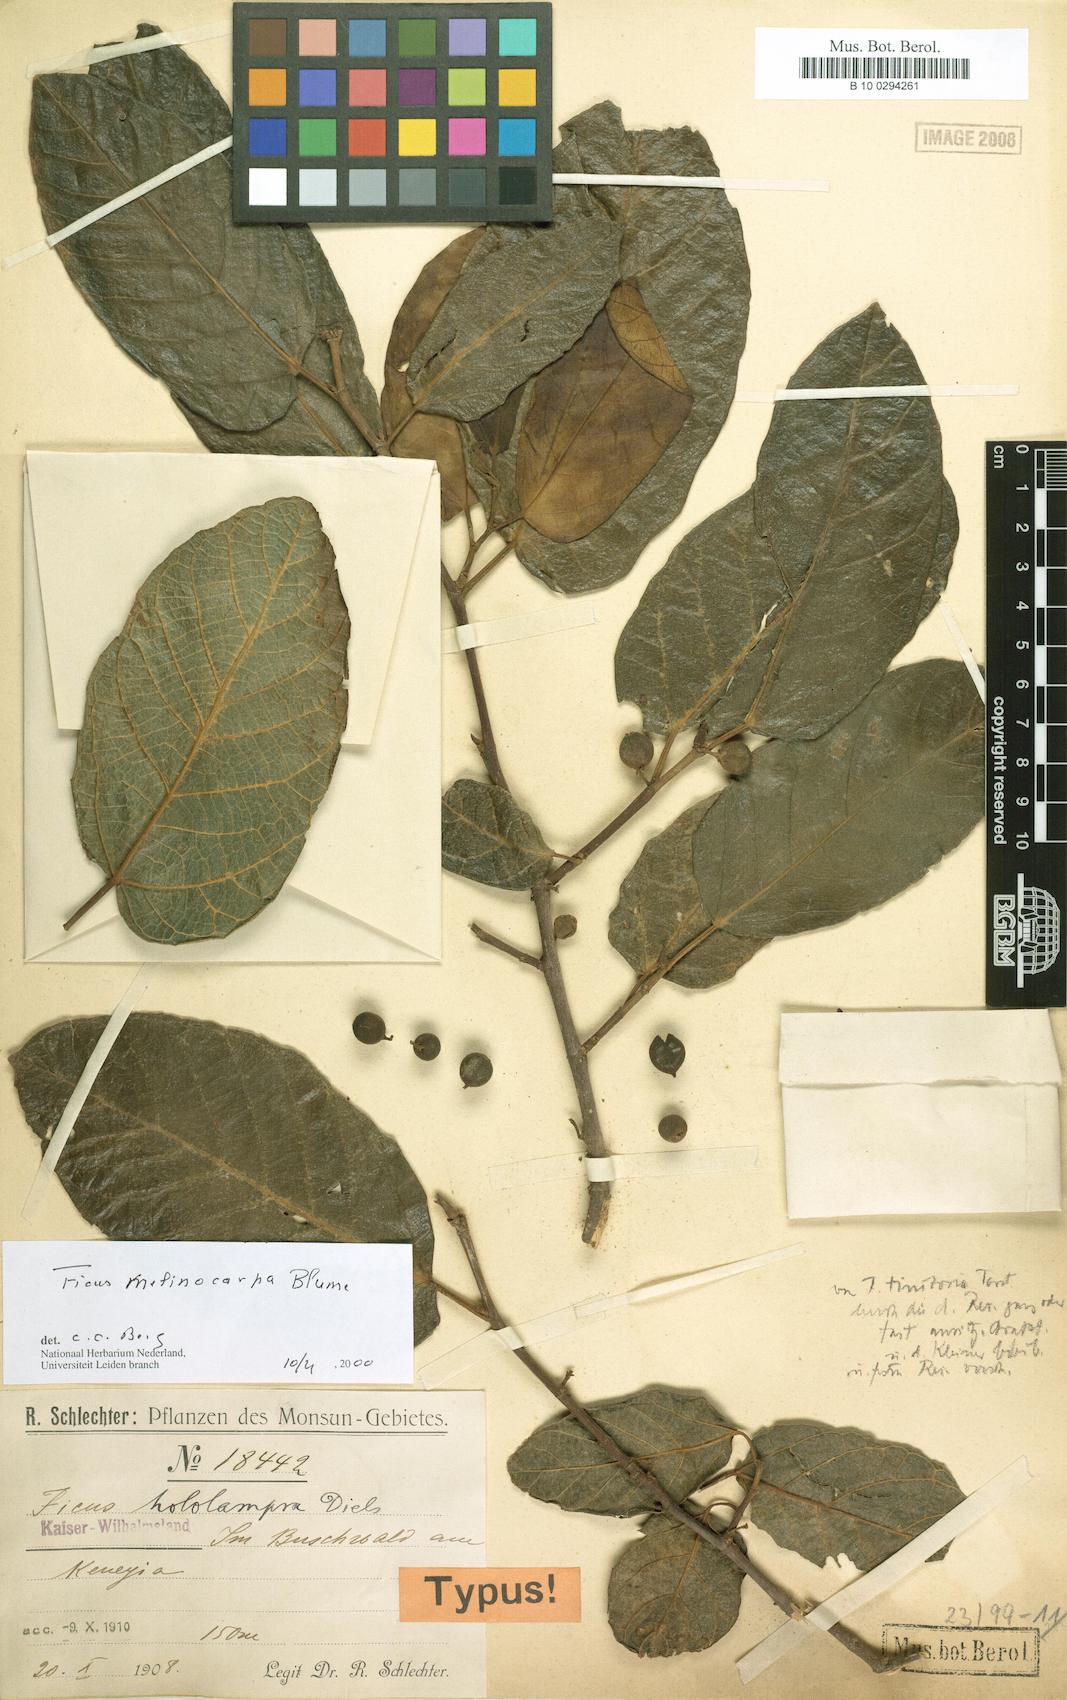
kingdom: Plantae
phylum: Tracheophyta
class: Magnoliopsida
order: Rosales
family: Moraceae
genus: Ficus
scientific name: Ficus melinocarpa
